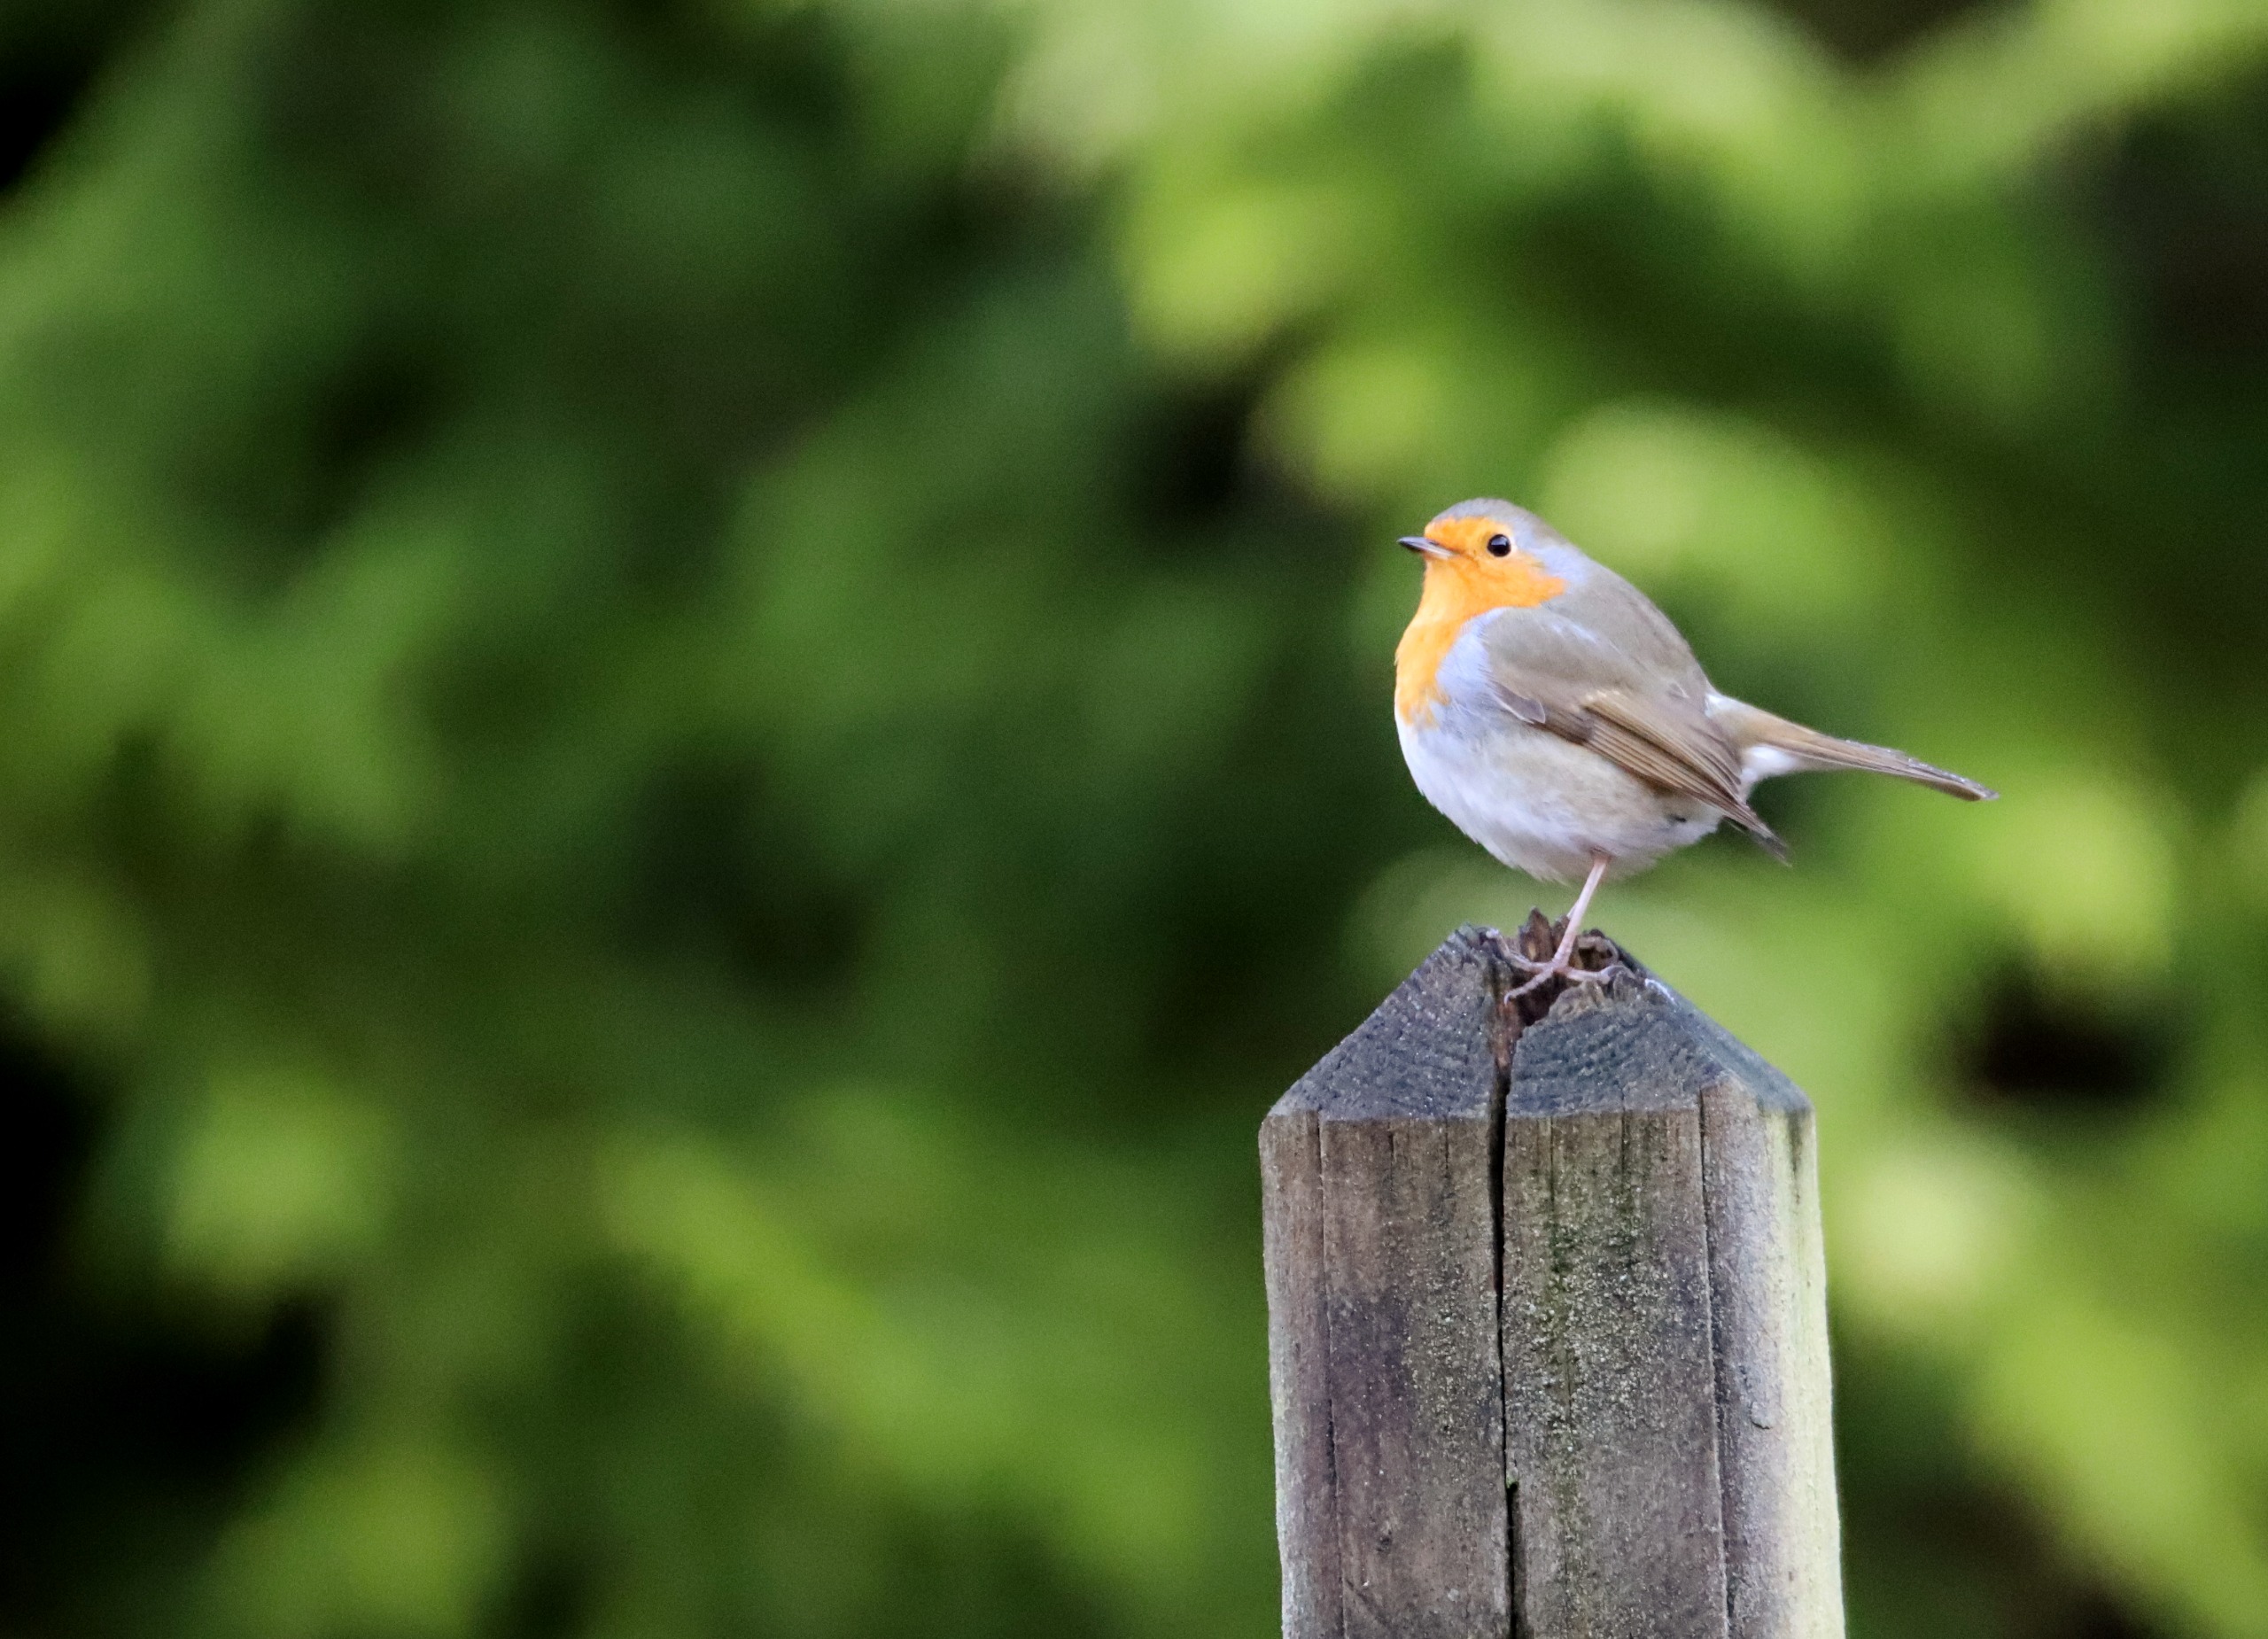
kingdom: Animalia
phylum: Chordata
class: Aves
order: Passeriformes
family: Muscicapidae
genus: Erithacus
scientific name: Erithacus rubecula
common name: Rødhals/rødkælk
